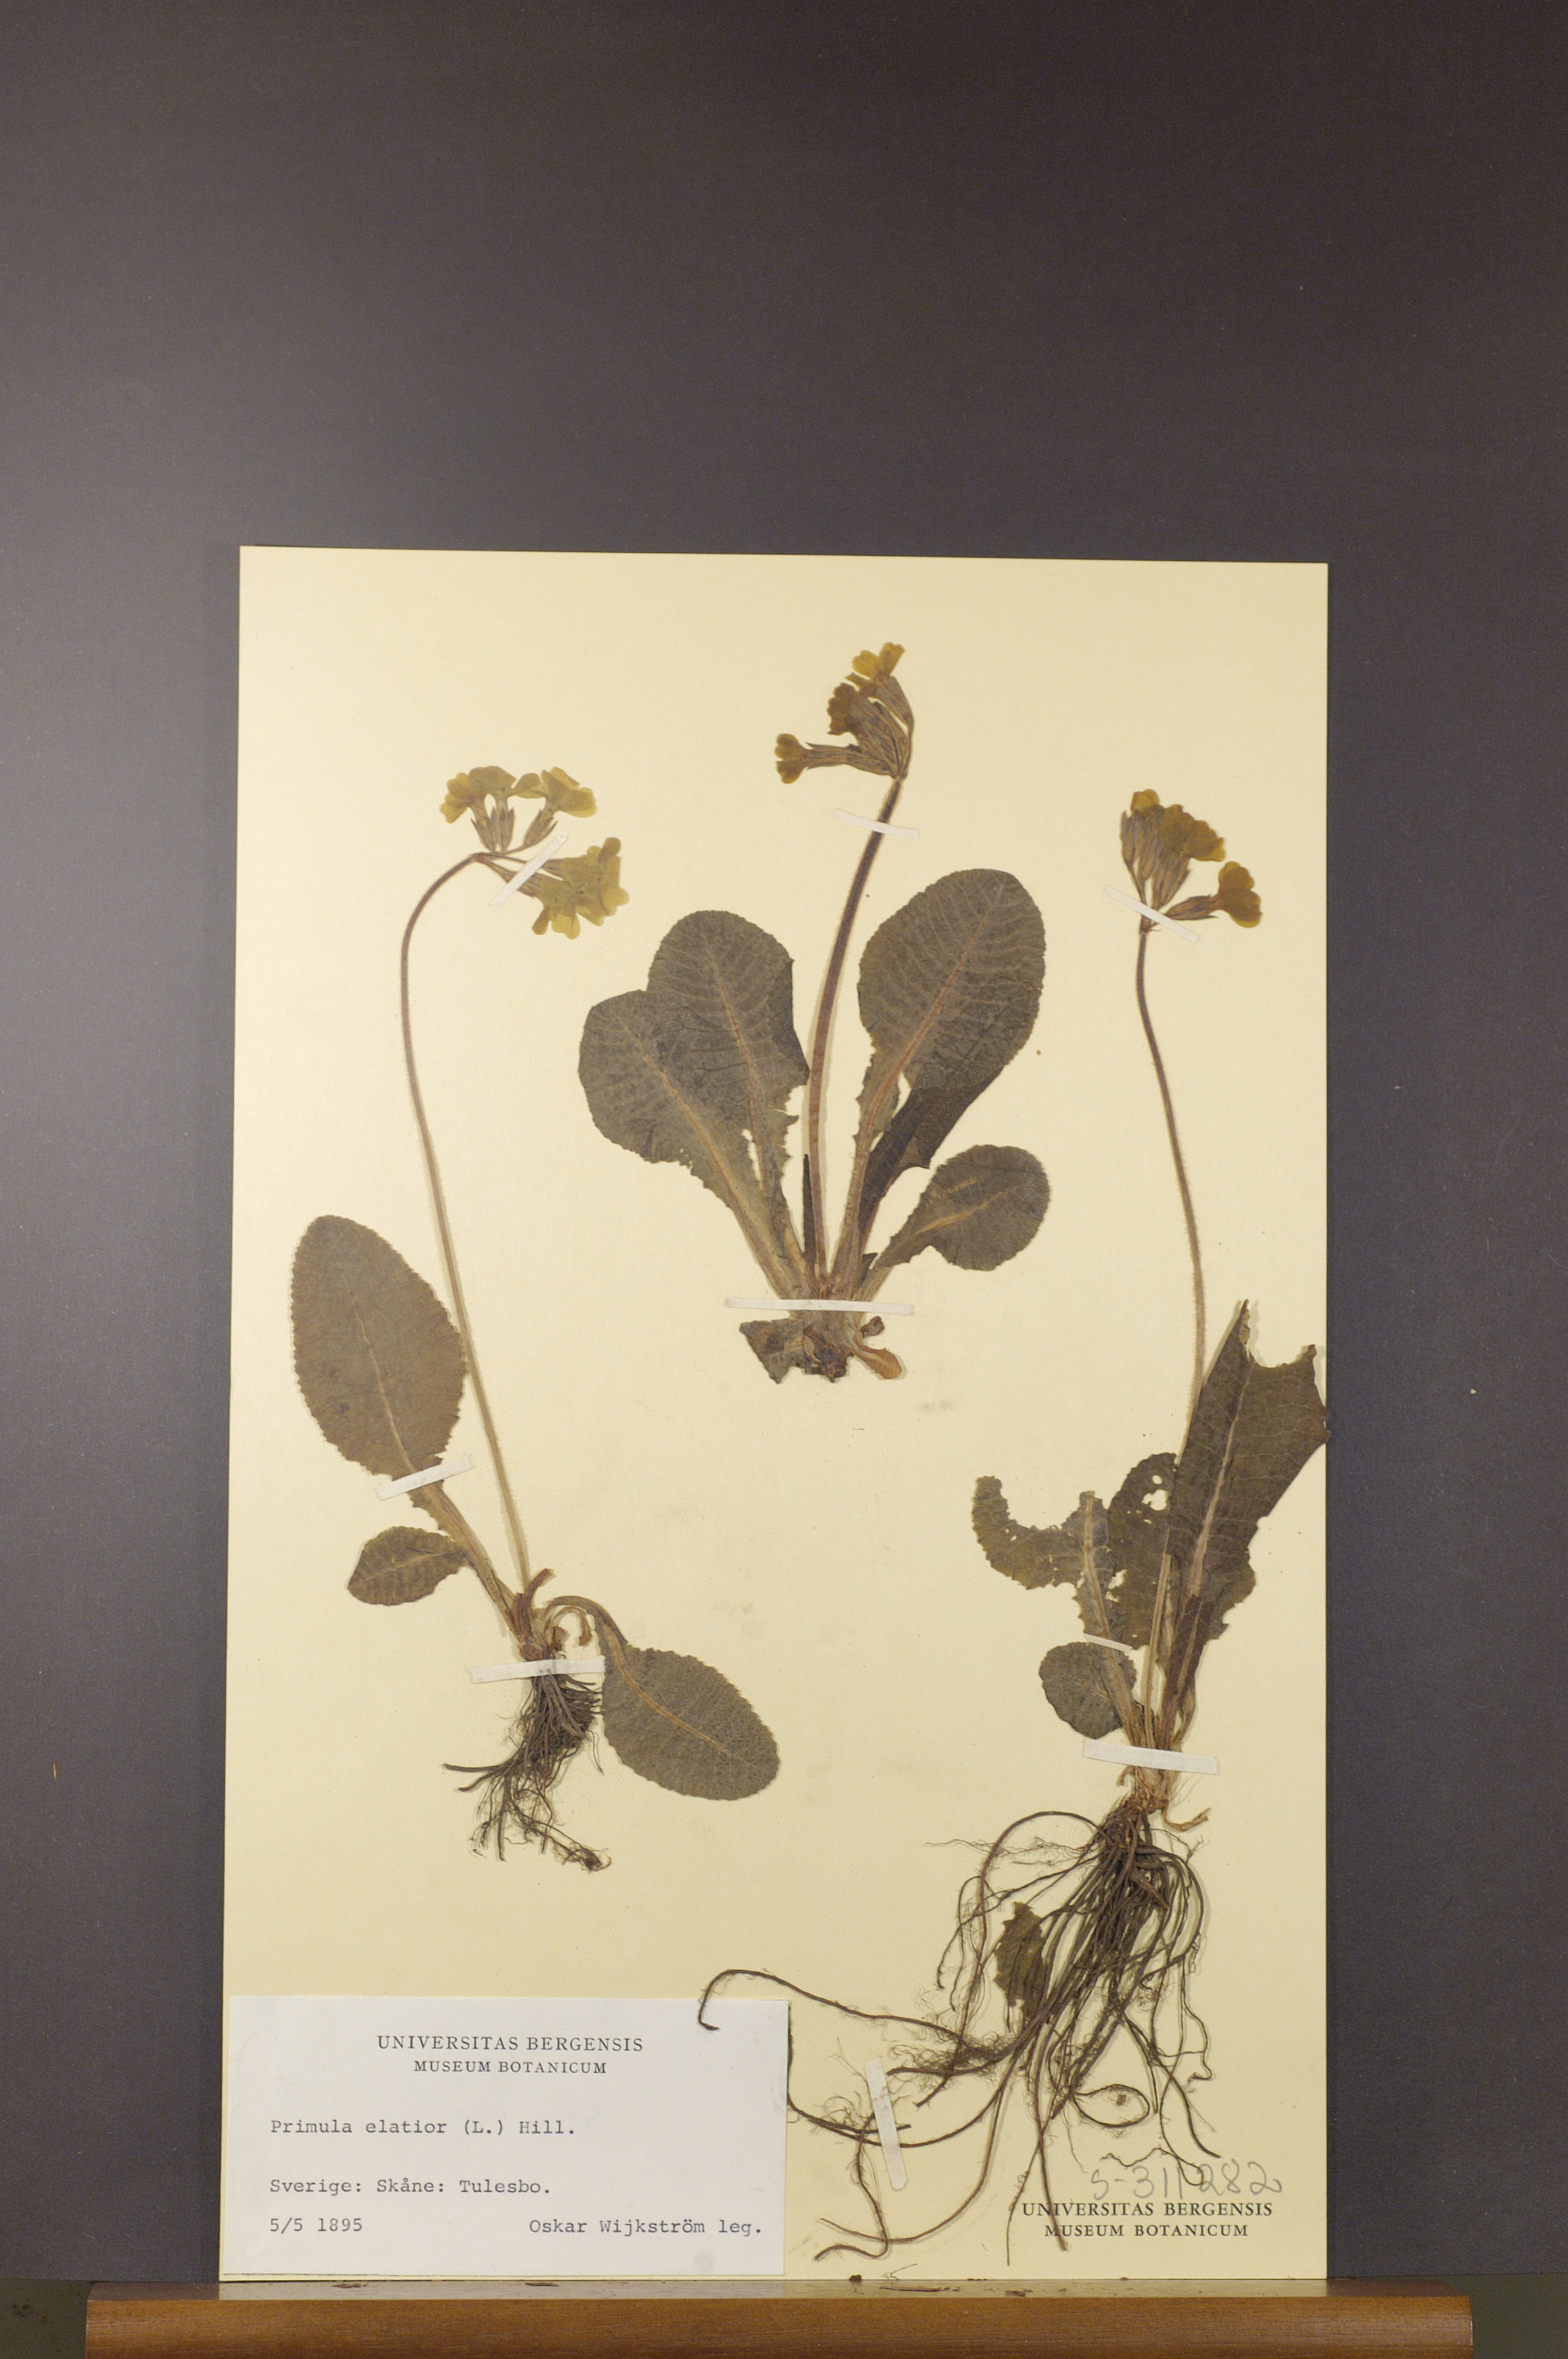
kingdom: Plantae
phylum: Tracheophyta
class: Magnoliopsida
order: Ericales
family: Primulaceae
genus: Primula
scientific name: Primula elatior
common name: Oxlip
